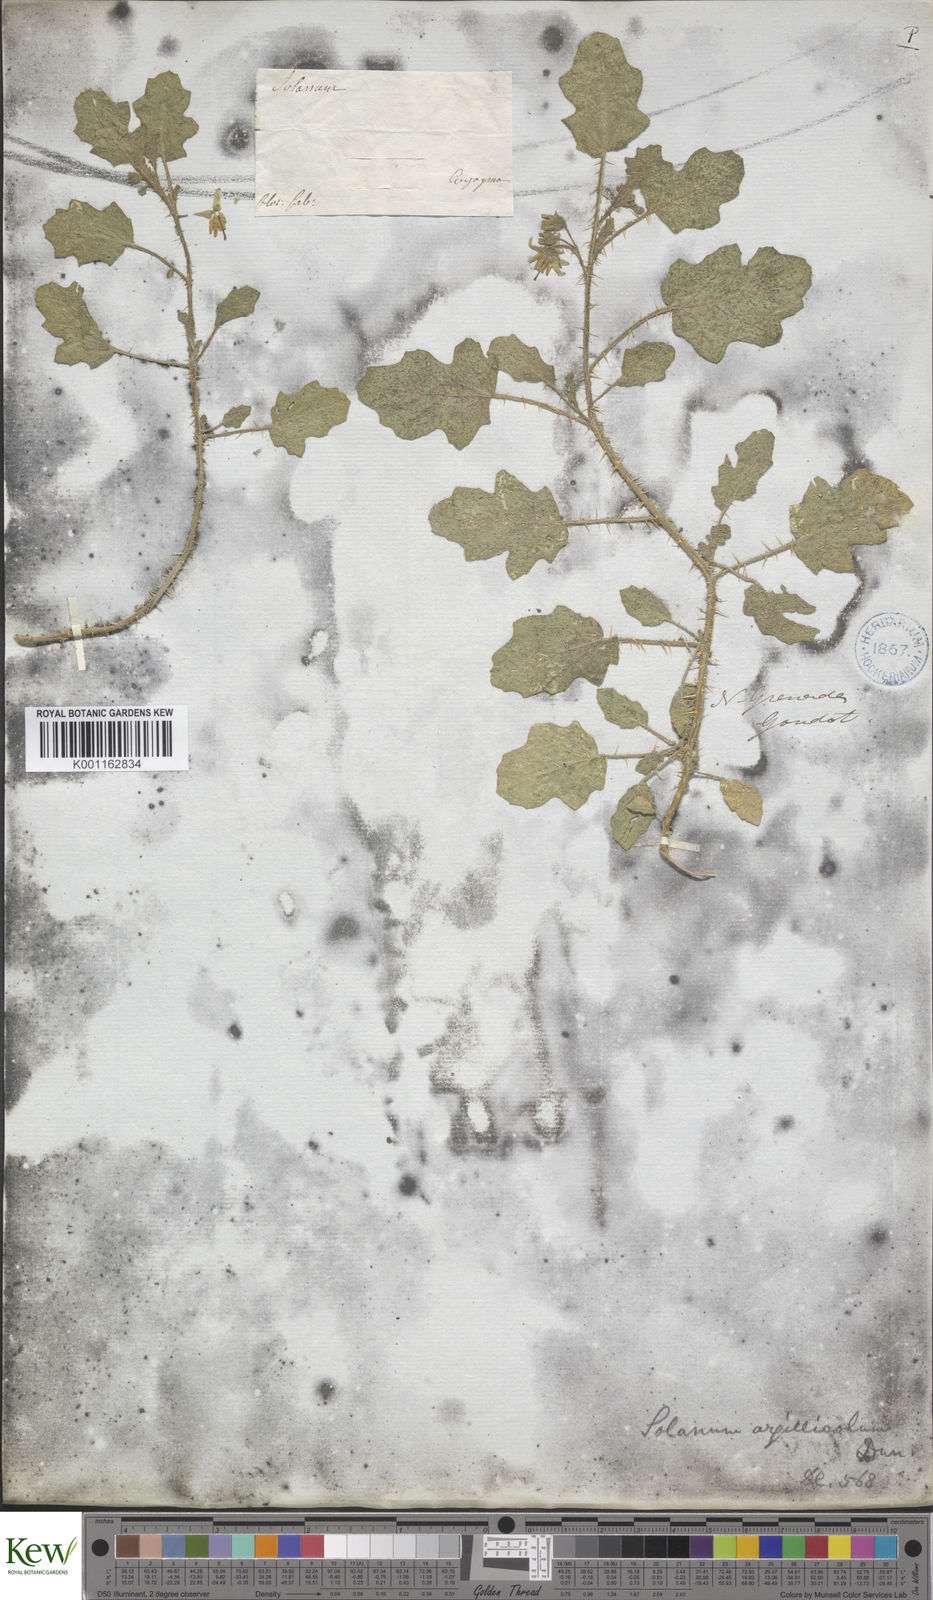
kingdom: Plantae
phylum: Tracheophyta
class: Magnoliopsida
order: Solanales
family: Solanaceae
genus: Solanum
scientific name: Solanum agrarium
